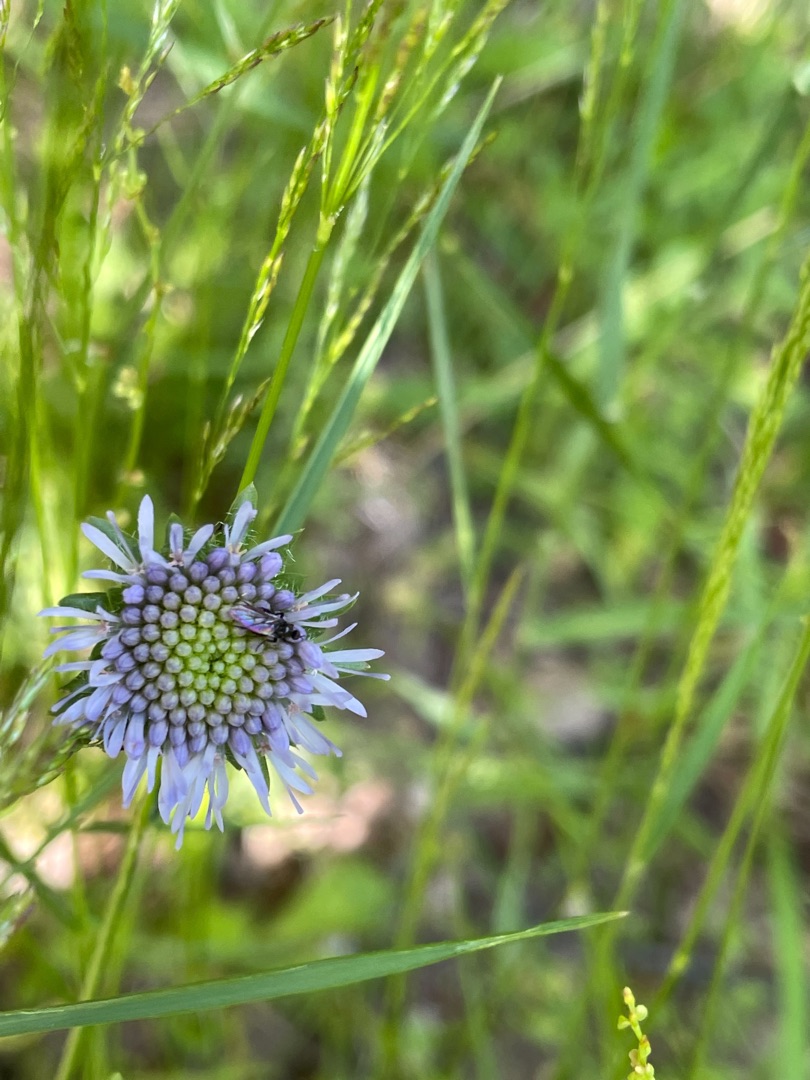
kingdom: Plantae
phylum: Tracheophyta
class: Magnoliopsida
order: Asterales
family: Campanulaceae
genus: Jasione
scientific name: Jasione montana
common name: Blåmunke
